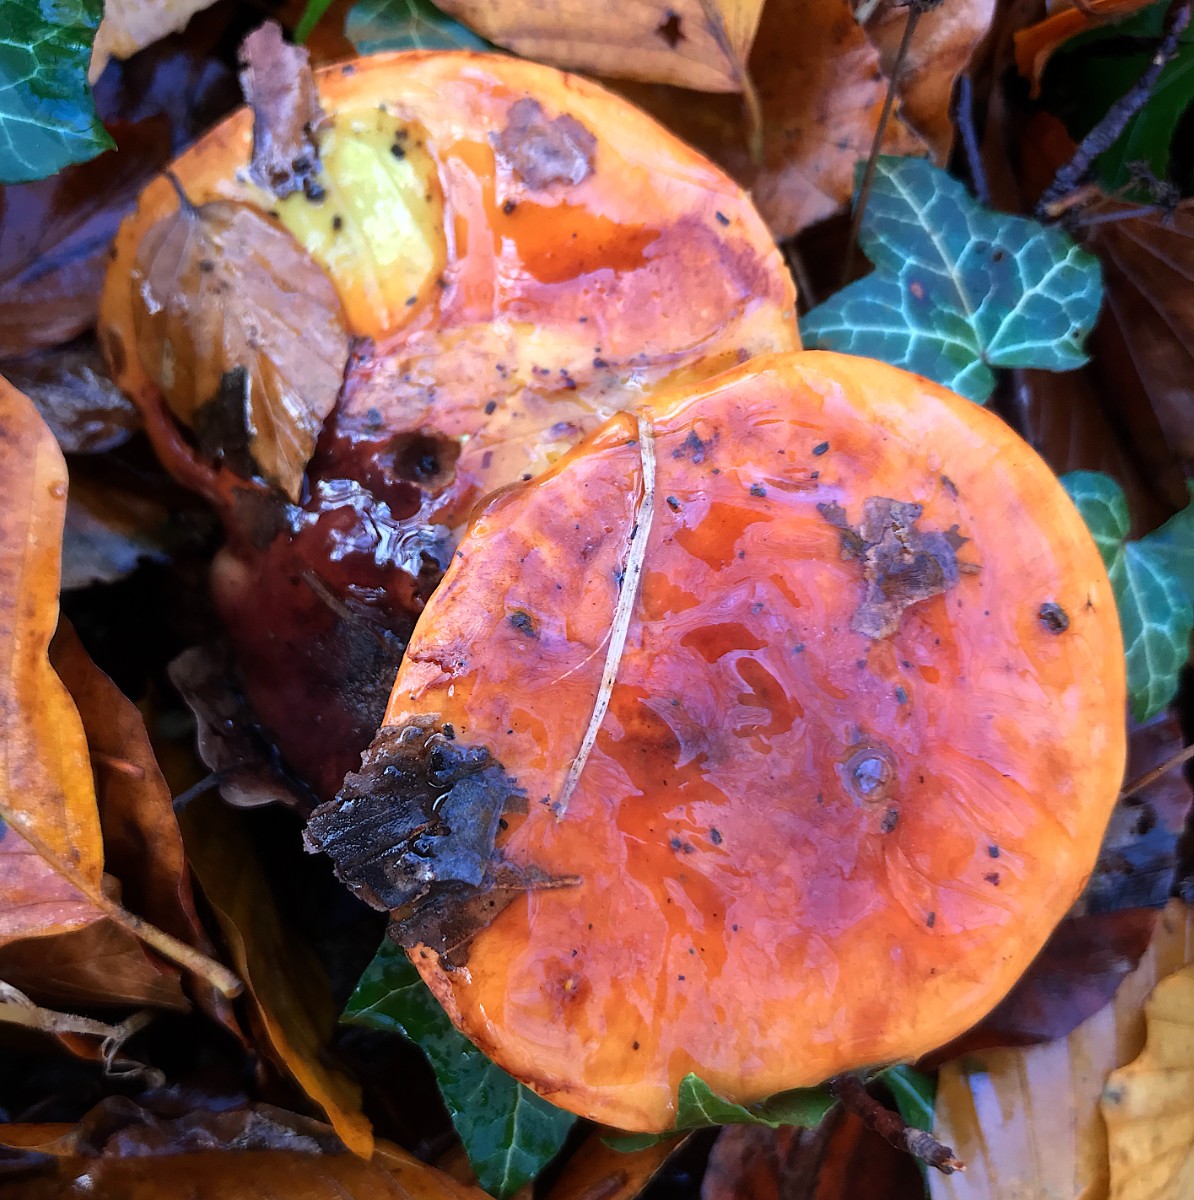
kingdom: Fungi
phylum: Basidiomycota
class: Agaricomycetes
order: Agaricales
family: Cortinariaceae
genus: Calonarius
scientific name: Calonarius elegantissimus
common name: orangegylden slørhat
